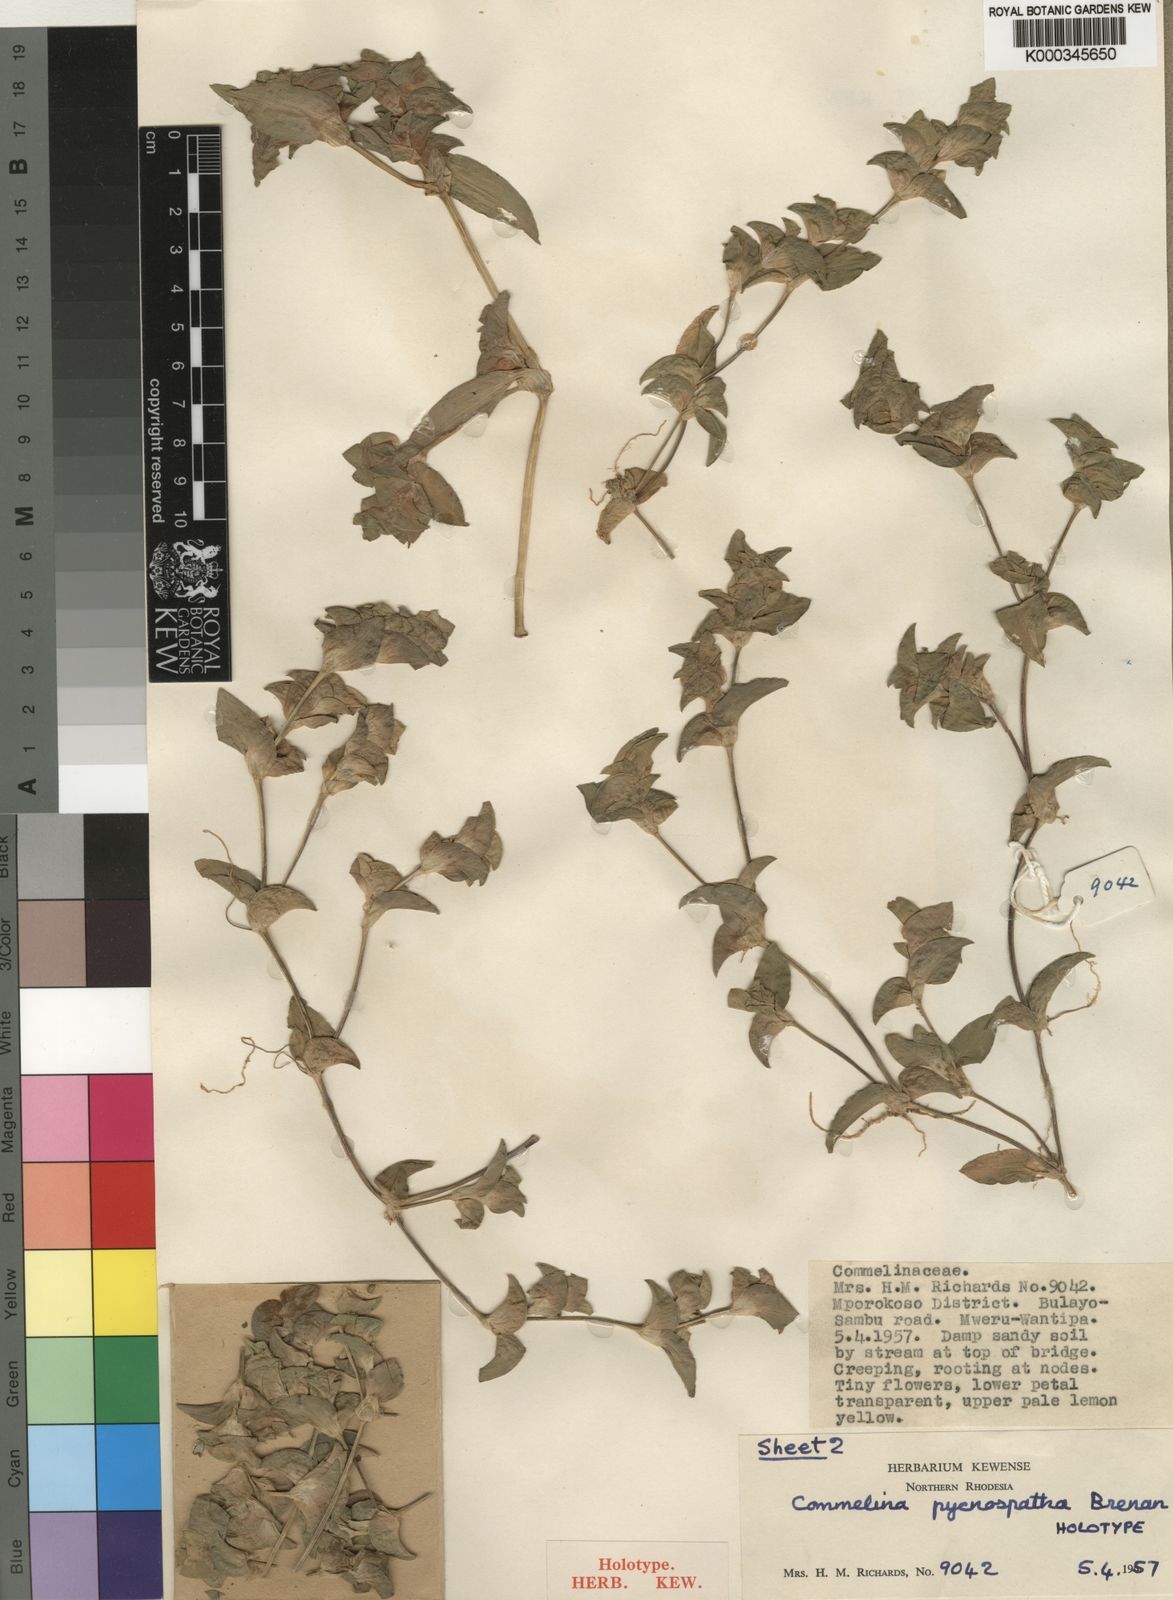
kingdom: Plantae
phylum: Tracheophyta
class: Liliopsida
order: Commelinales
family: Commelinaceae
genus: Commelina
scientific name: Commelina pycnospatha
